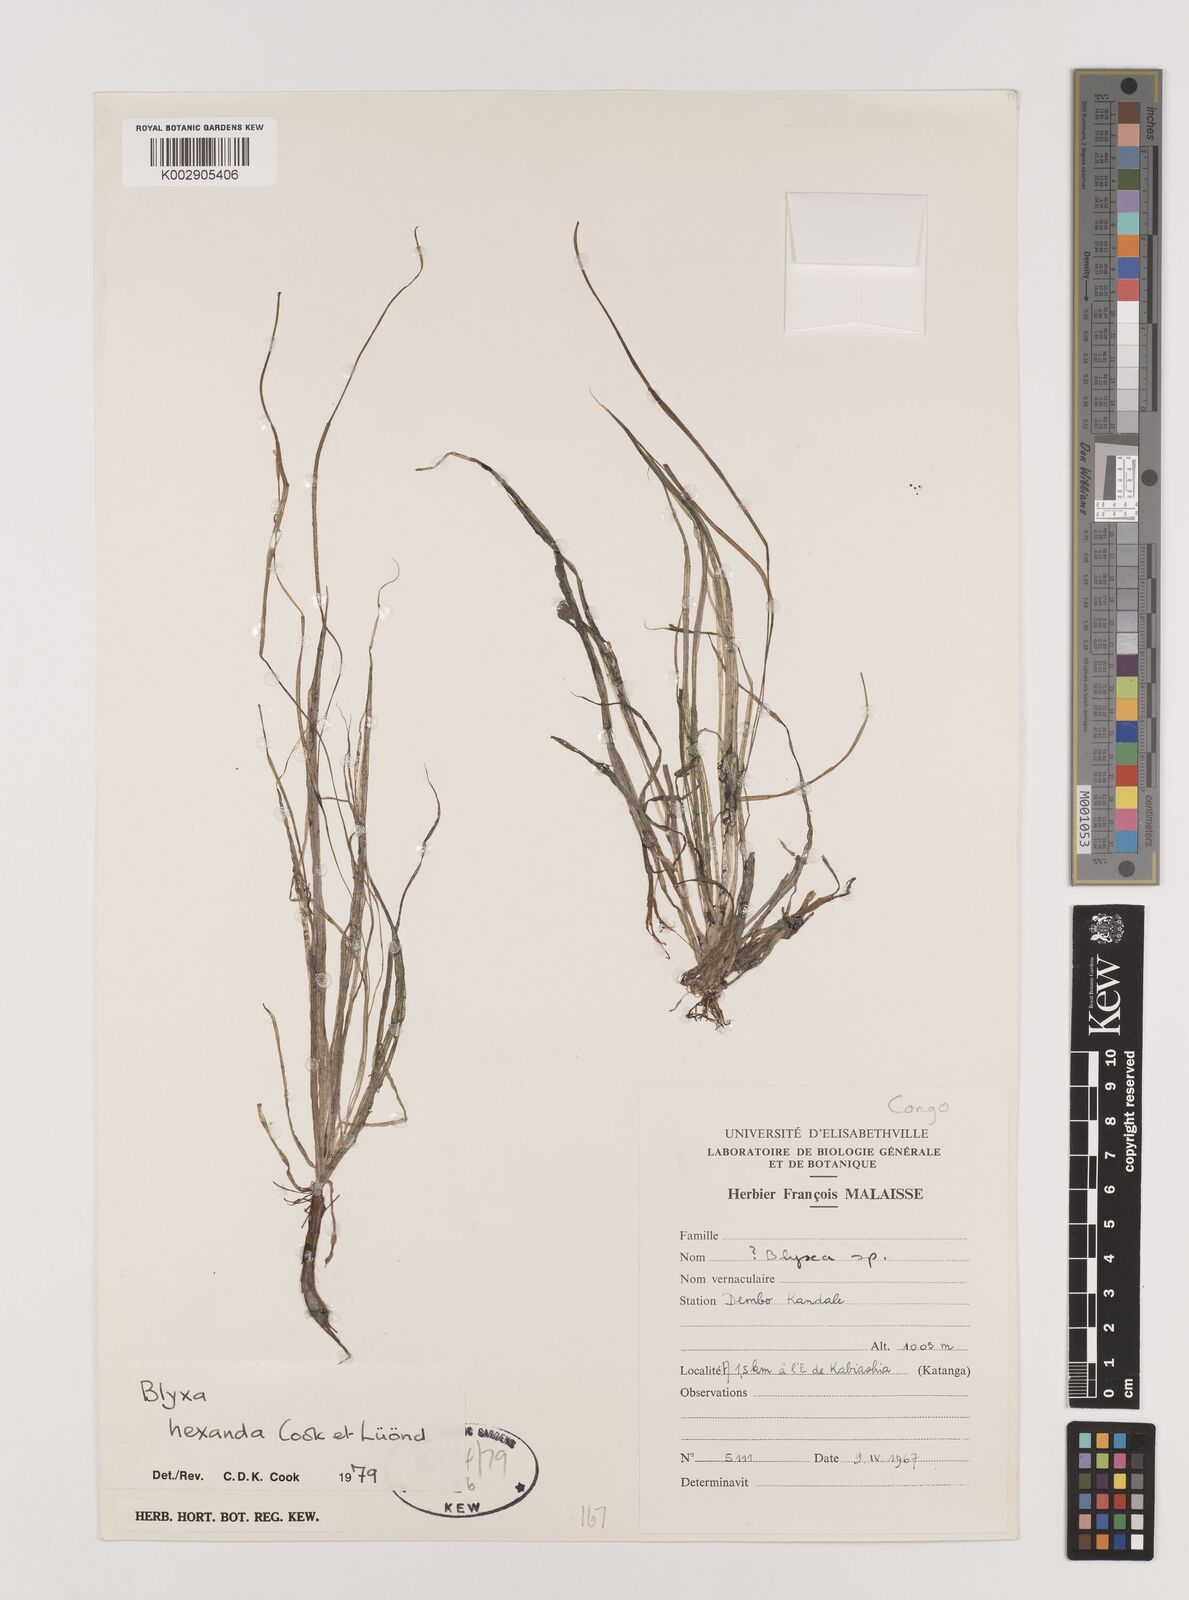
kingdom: Plantae
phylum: Tracheophyta
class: Liliopsida
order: Alismatales
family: Hydrocharitaceae
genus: Blyxa
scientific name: Blyxa hexandra
